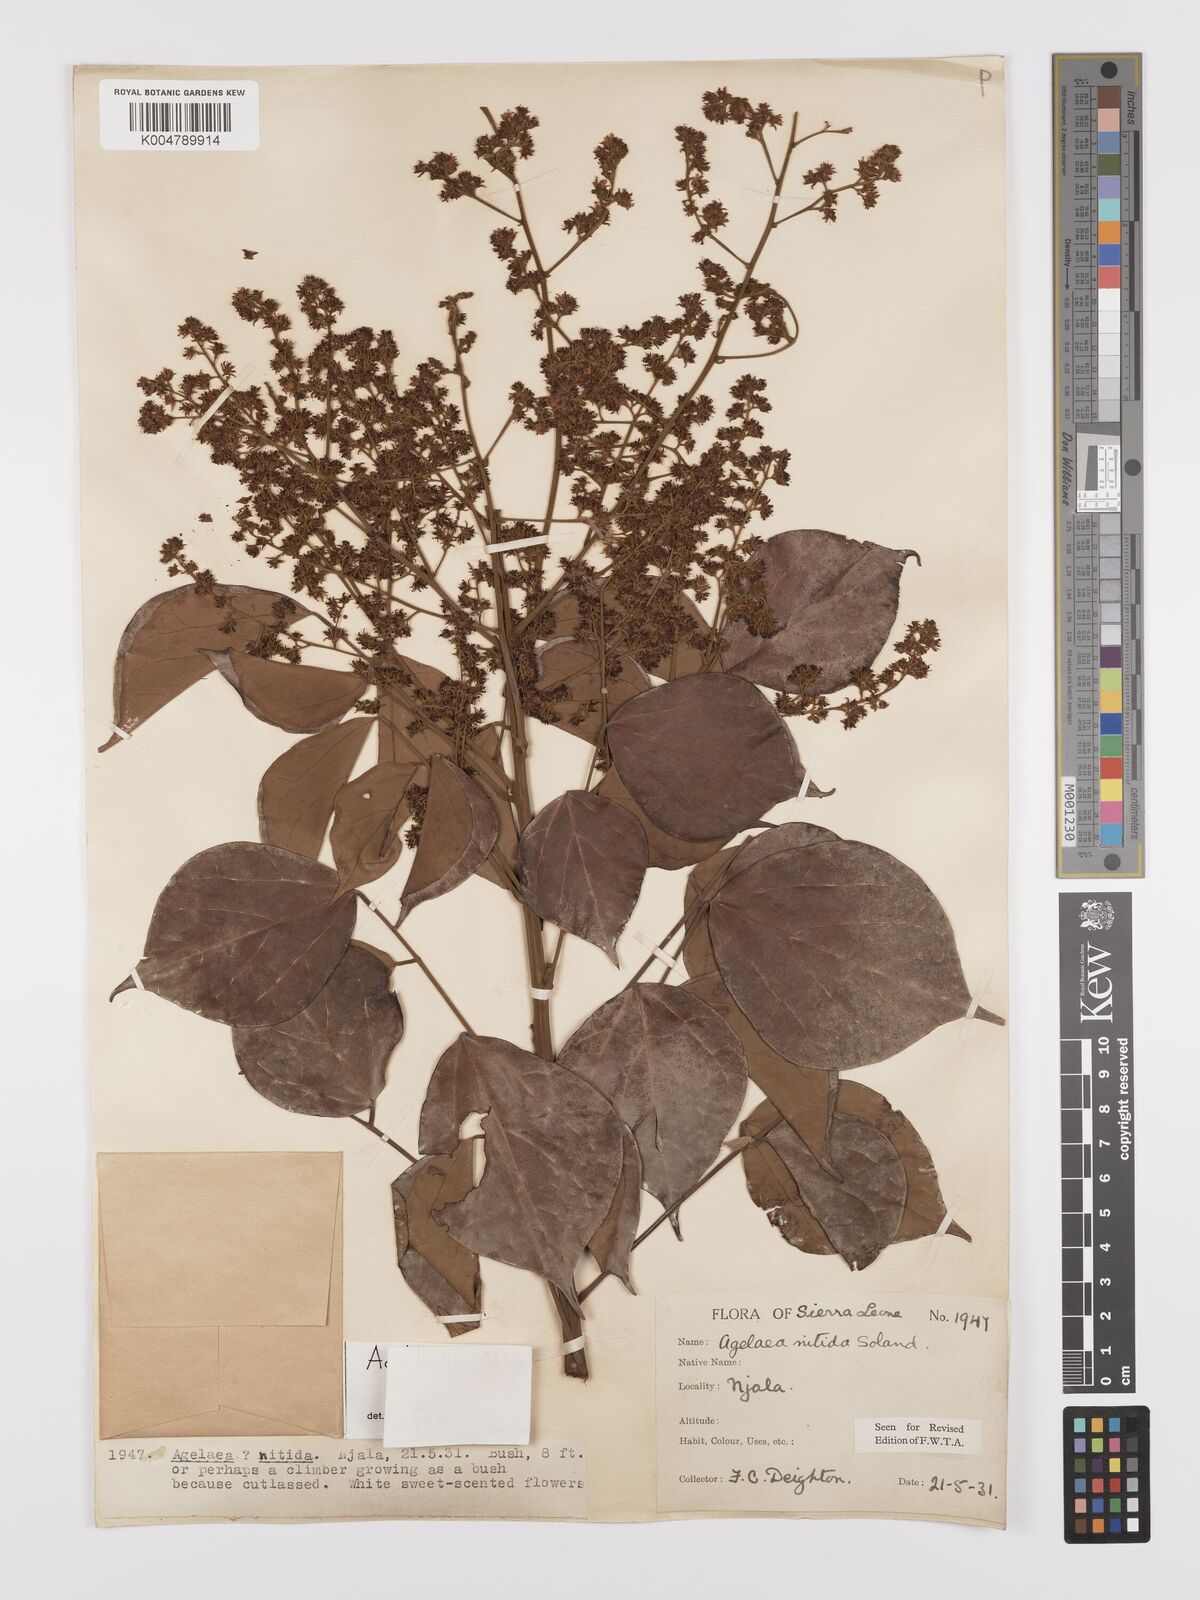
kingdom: Plantae
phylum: Tracheophyta
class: Magnoliopsida
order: Oxalidales
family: Connaraceae
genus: Agelaea
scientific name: Agelaea pentagyna
